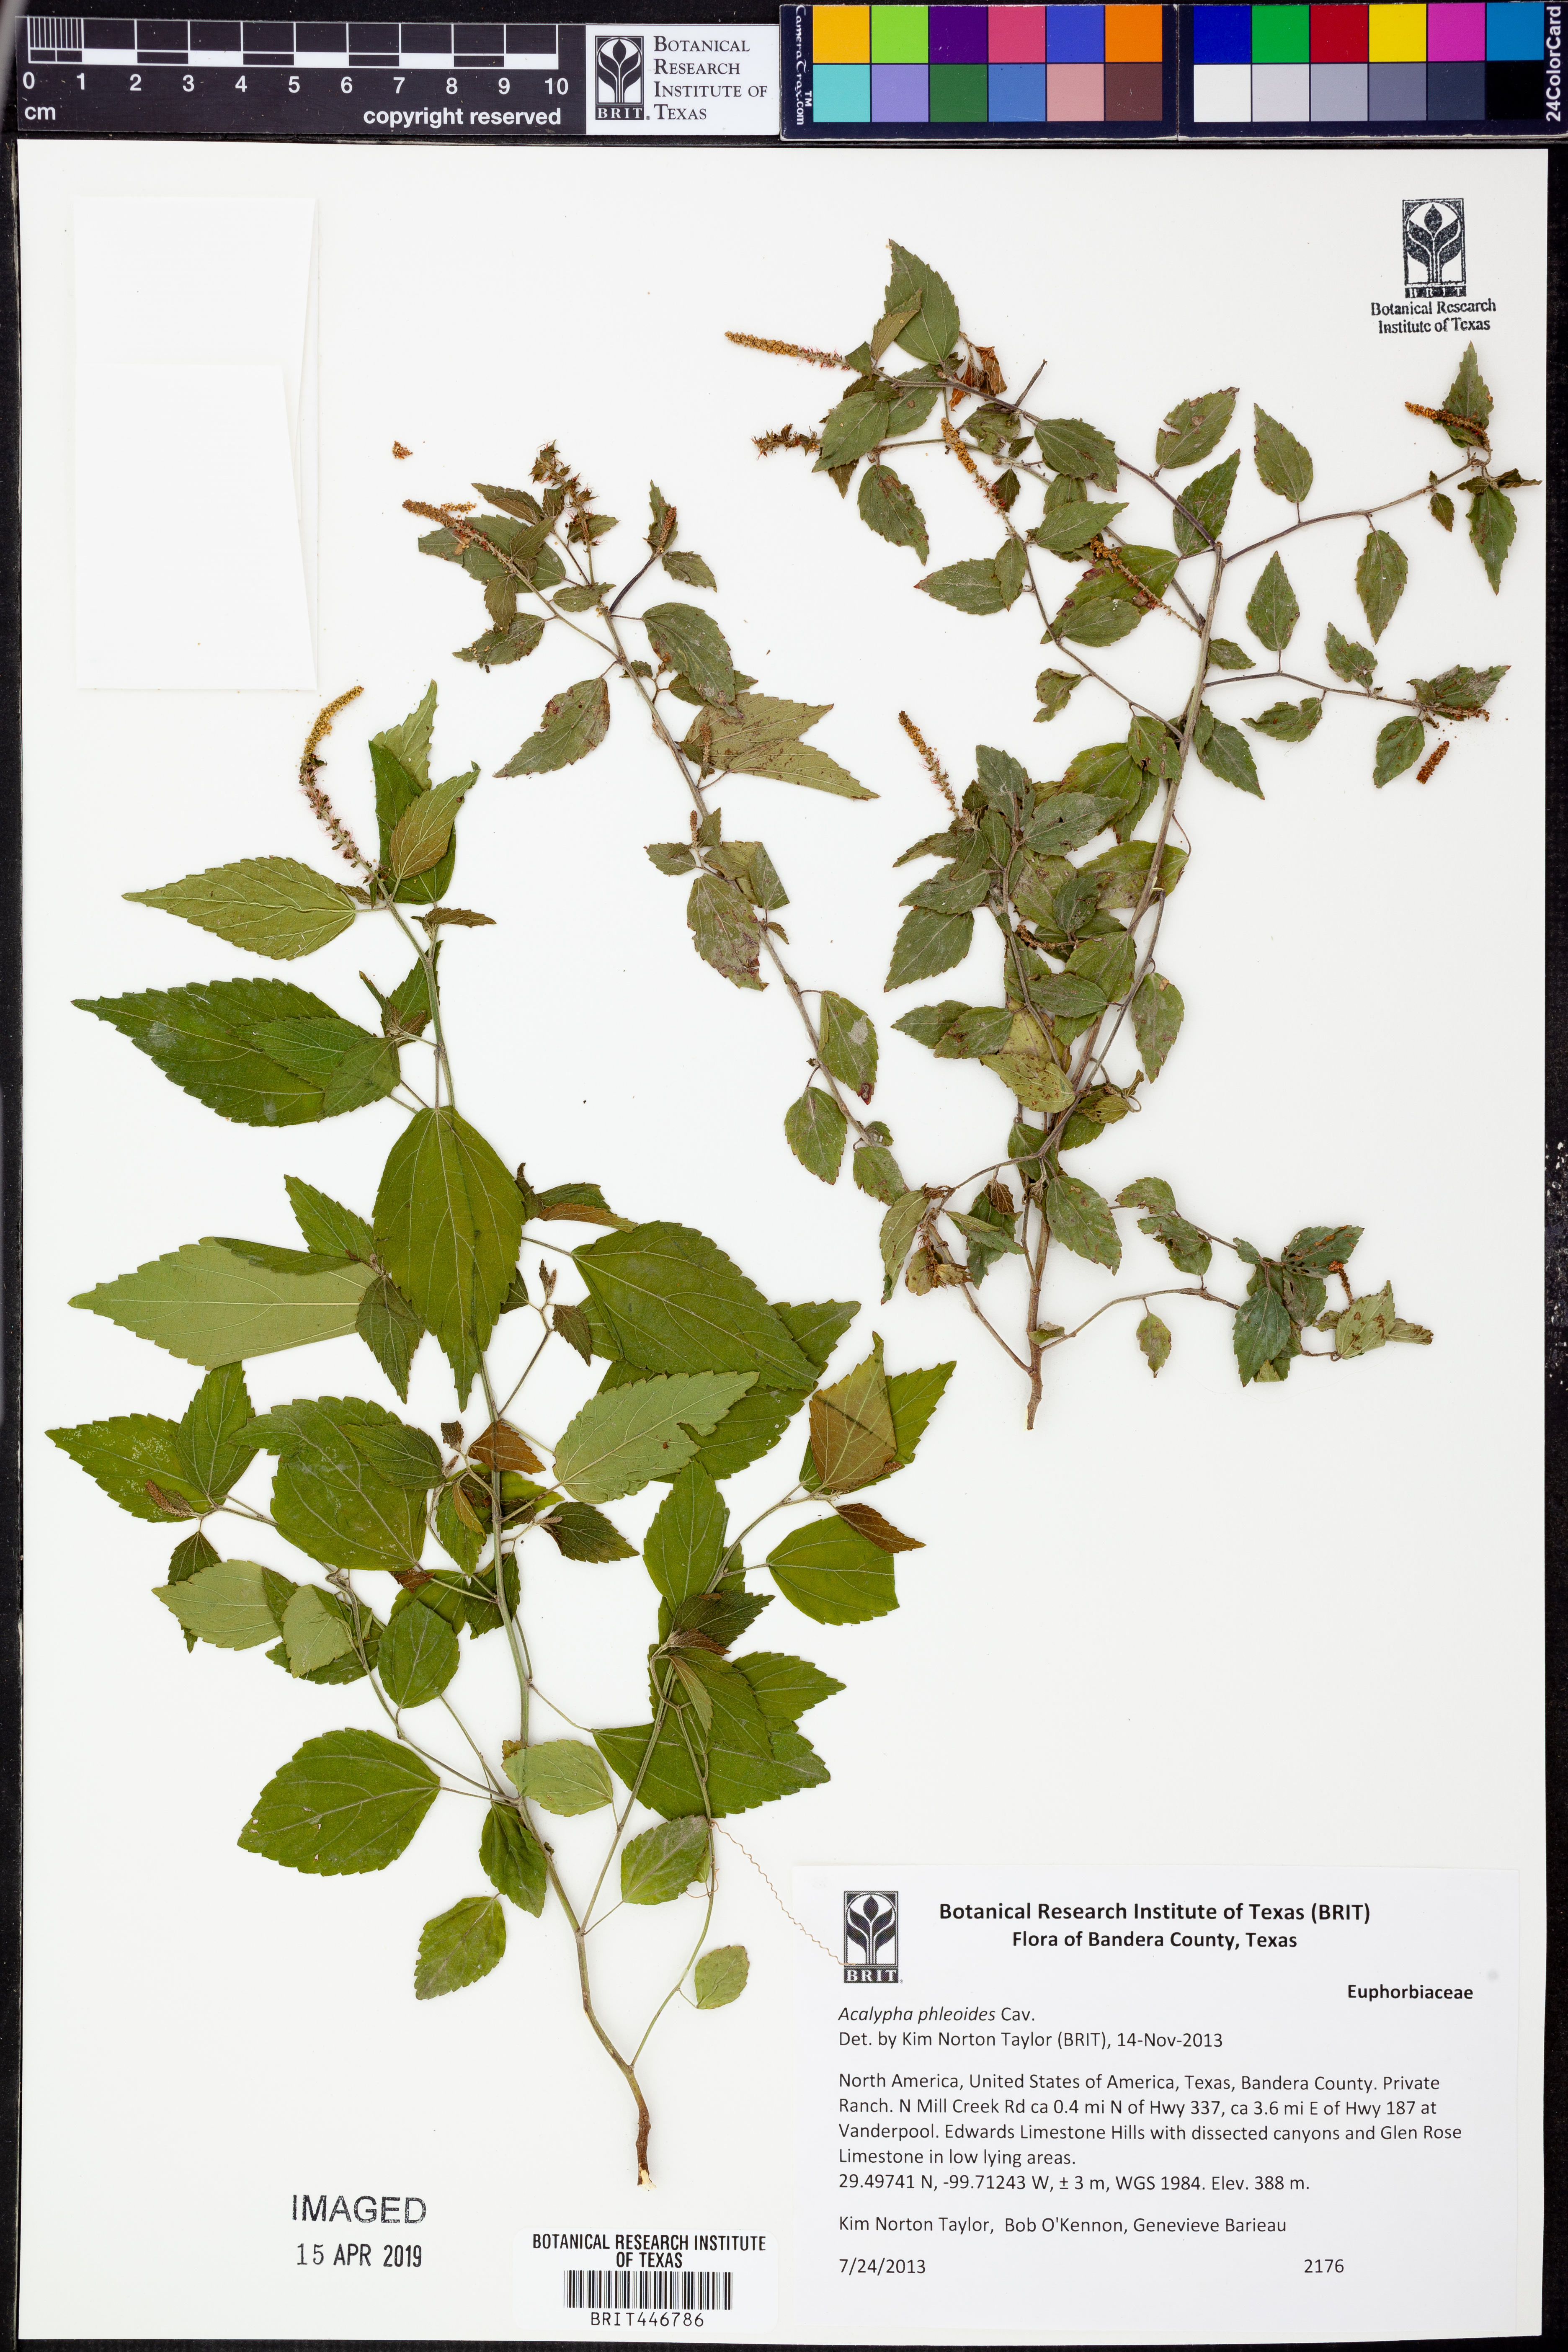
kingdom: Plantae
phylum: Tracheophyta
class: Magnoliopsida
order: Malpighiales
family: Euphorbiaceae
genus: Acalypha
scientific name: Acalypha phleoides
